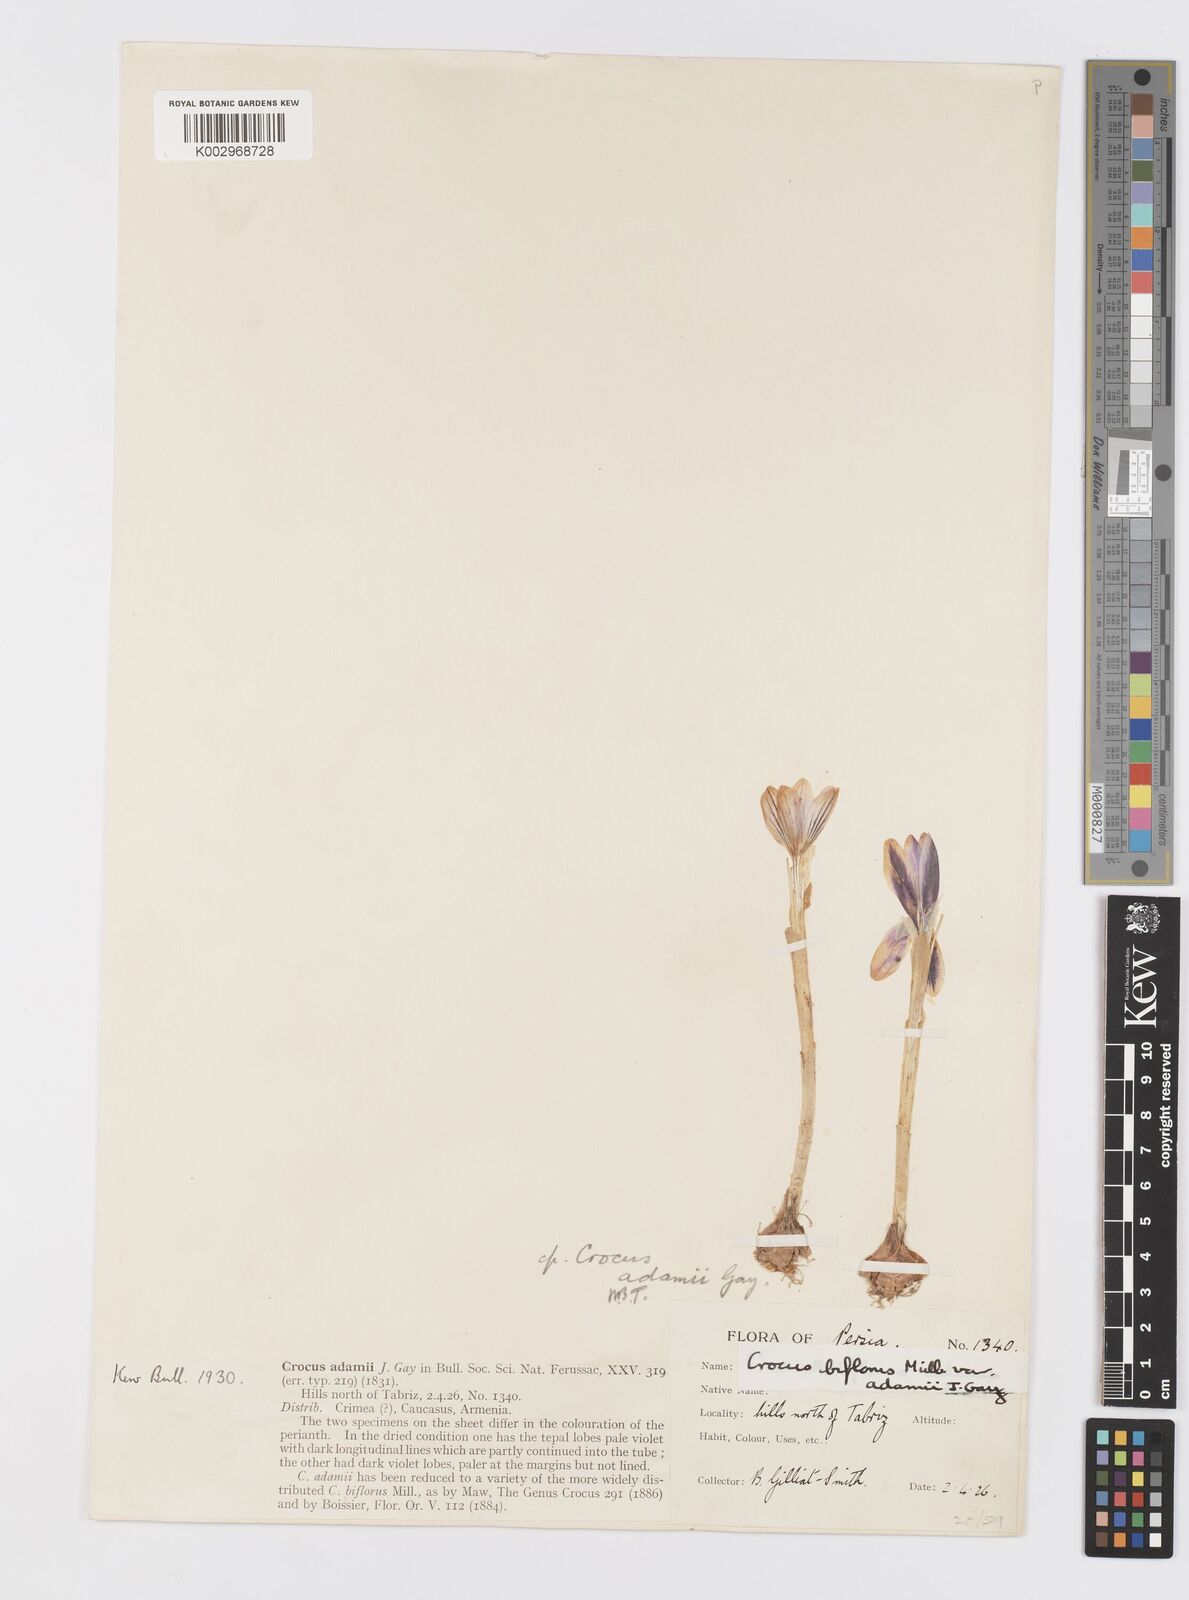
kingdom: Plantae
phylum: Tracheophyta
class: Liliopsida
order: Asparagales
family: Iridaceae
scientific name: Iridaceae
